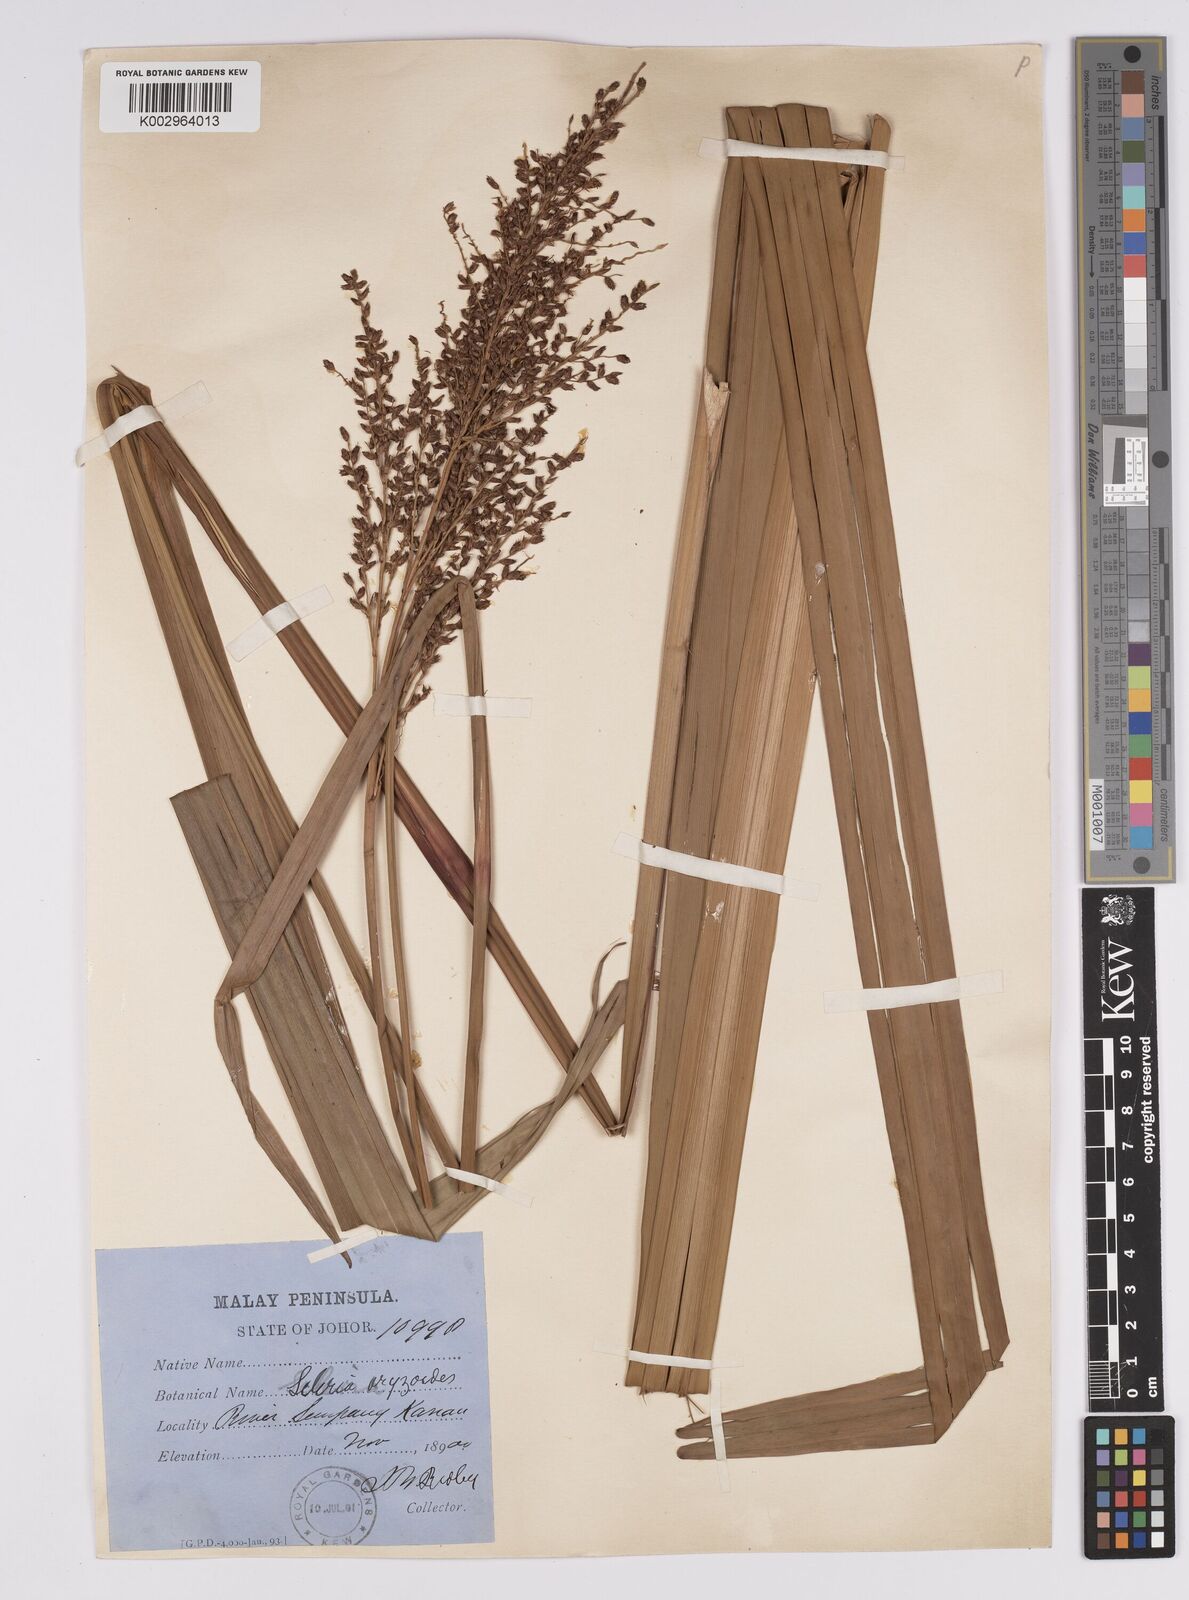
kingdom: Plantae
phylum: Tracheophyta
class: Liliopsida
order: Poales
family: Cyperaceae
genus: Scleria
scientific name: Scleria poiformis
